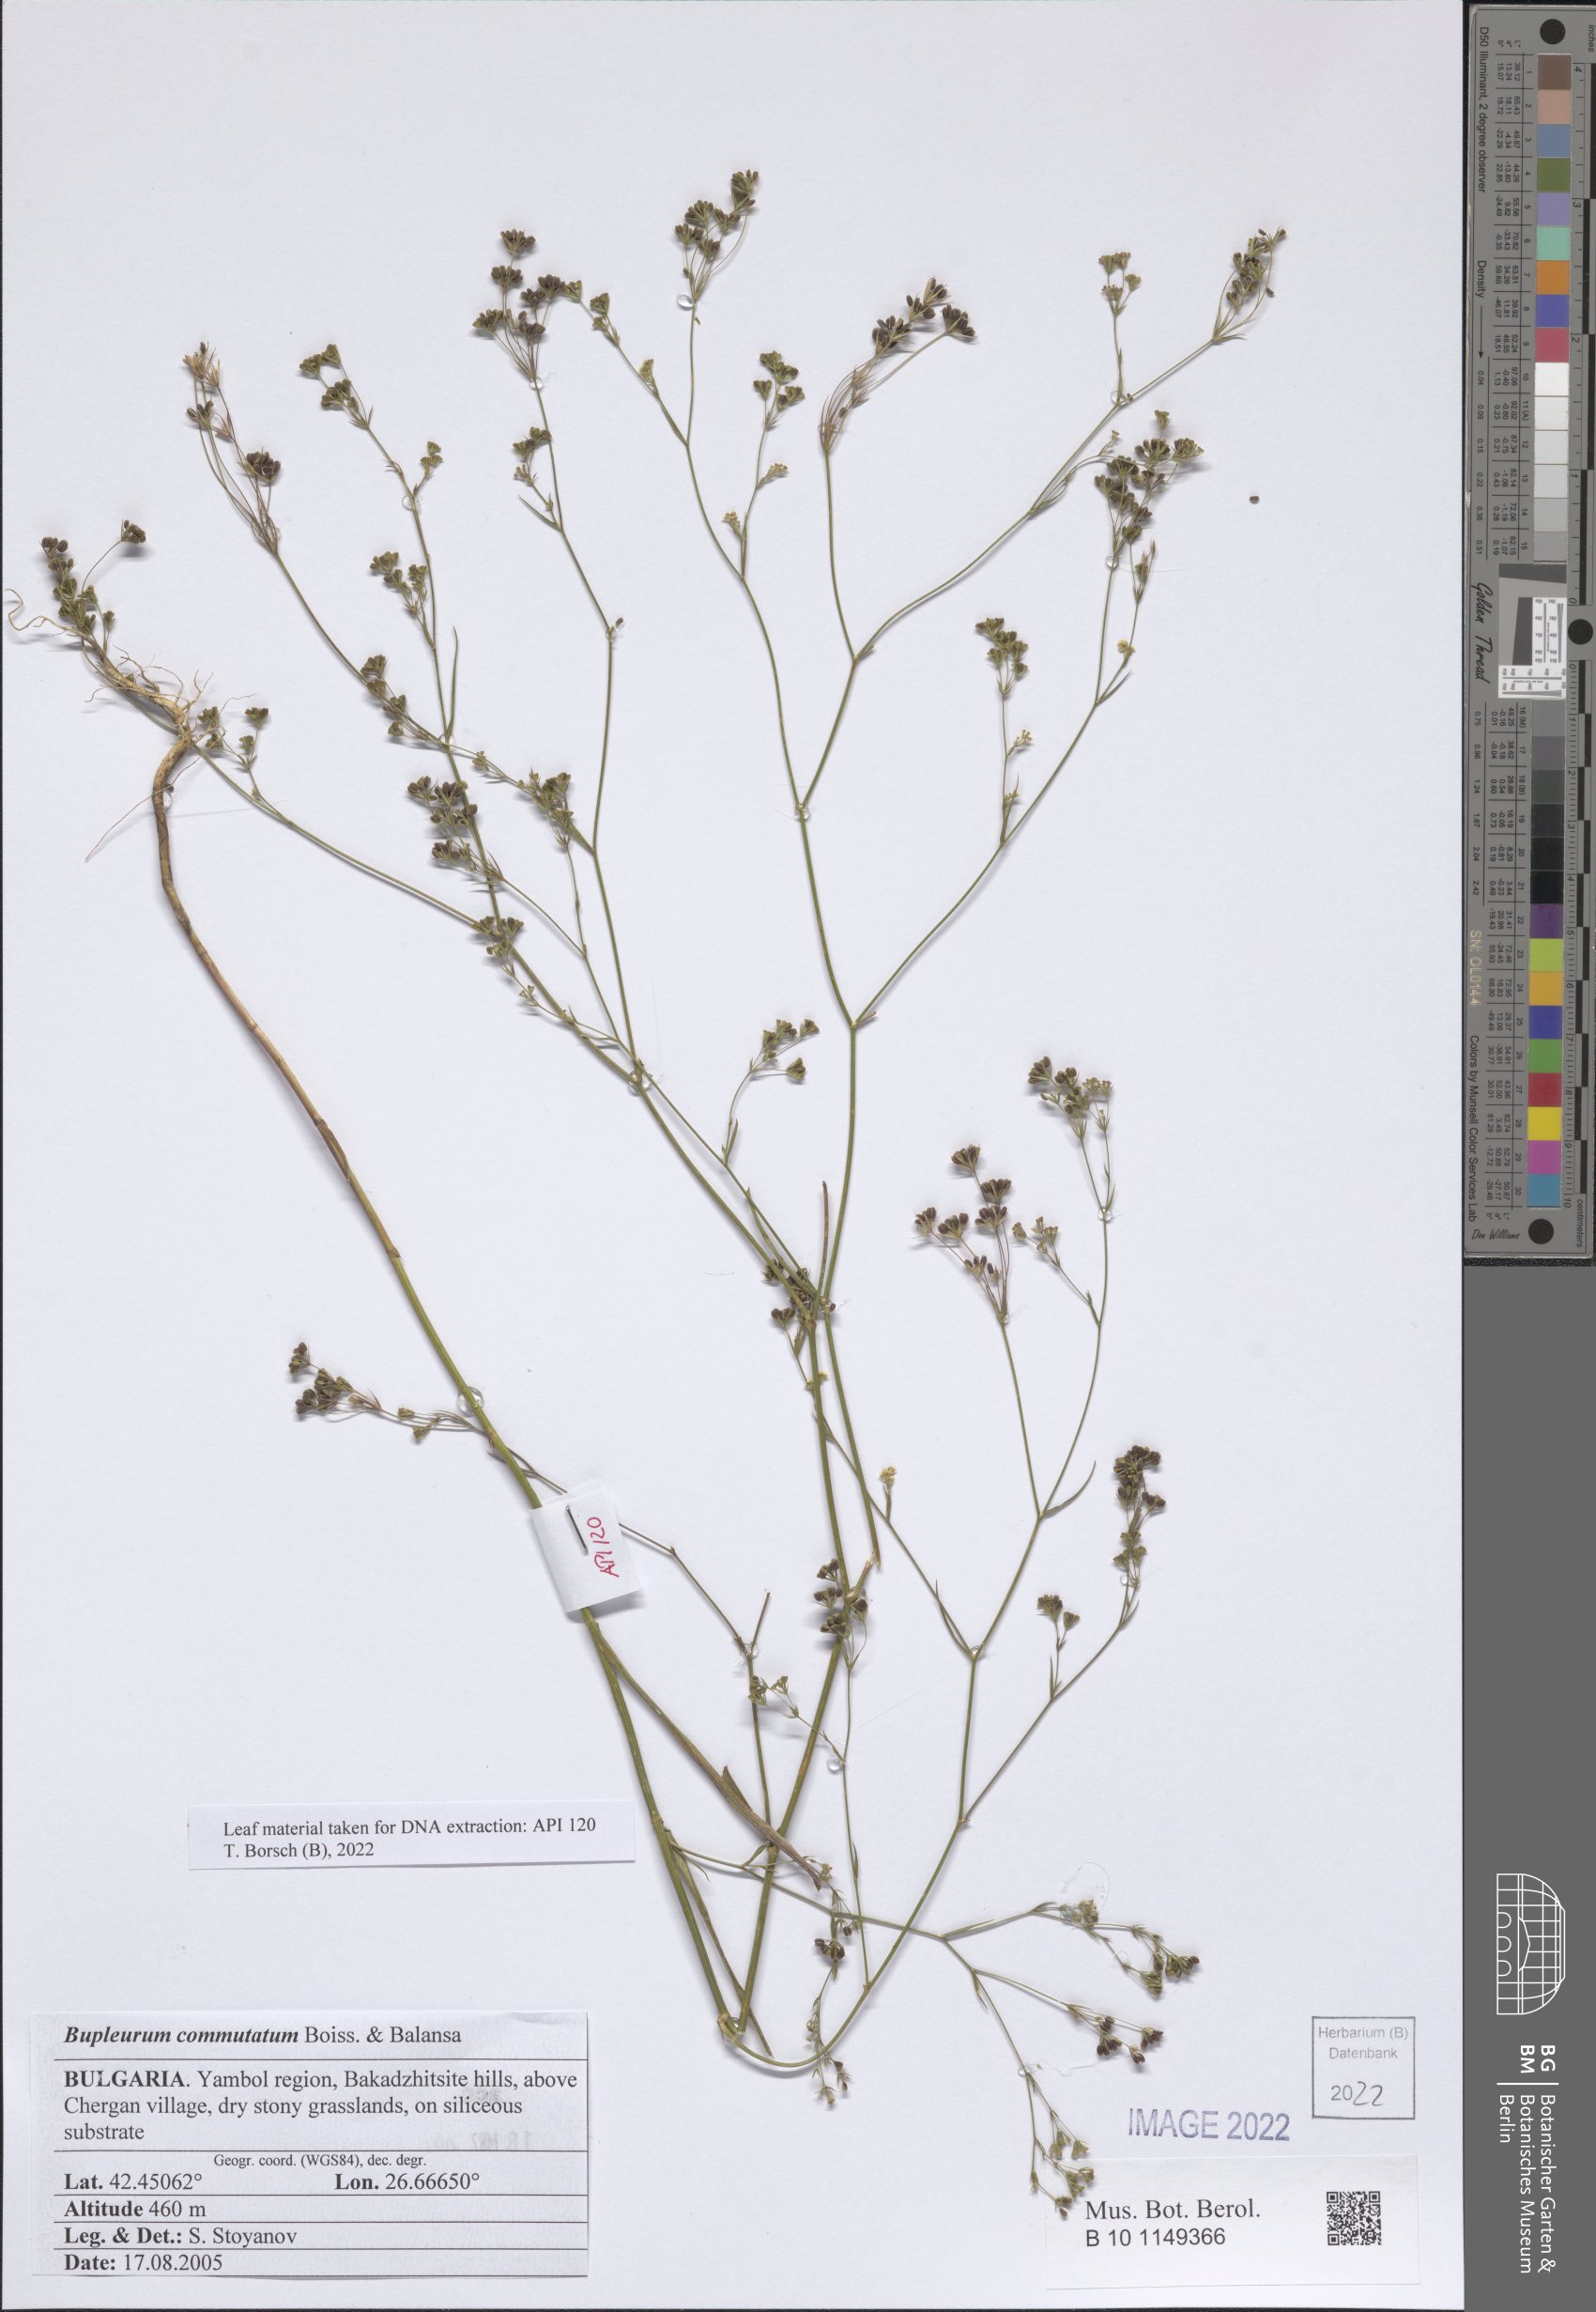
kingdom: Plantae
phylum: Tracheophyta
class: Magnoliopsida
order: Apiales
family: Apiaceae
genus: Bupleurum
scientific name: Bupleurum commutatum
